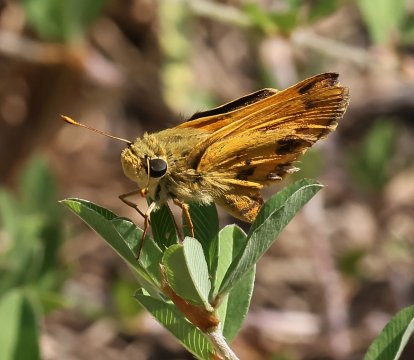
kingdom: Animalia
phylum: Arthropoda
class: Insecta
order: Lepidoptera
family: Hesperiidae
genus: Polites
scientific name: Polites vibex
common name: Whirlabout
